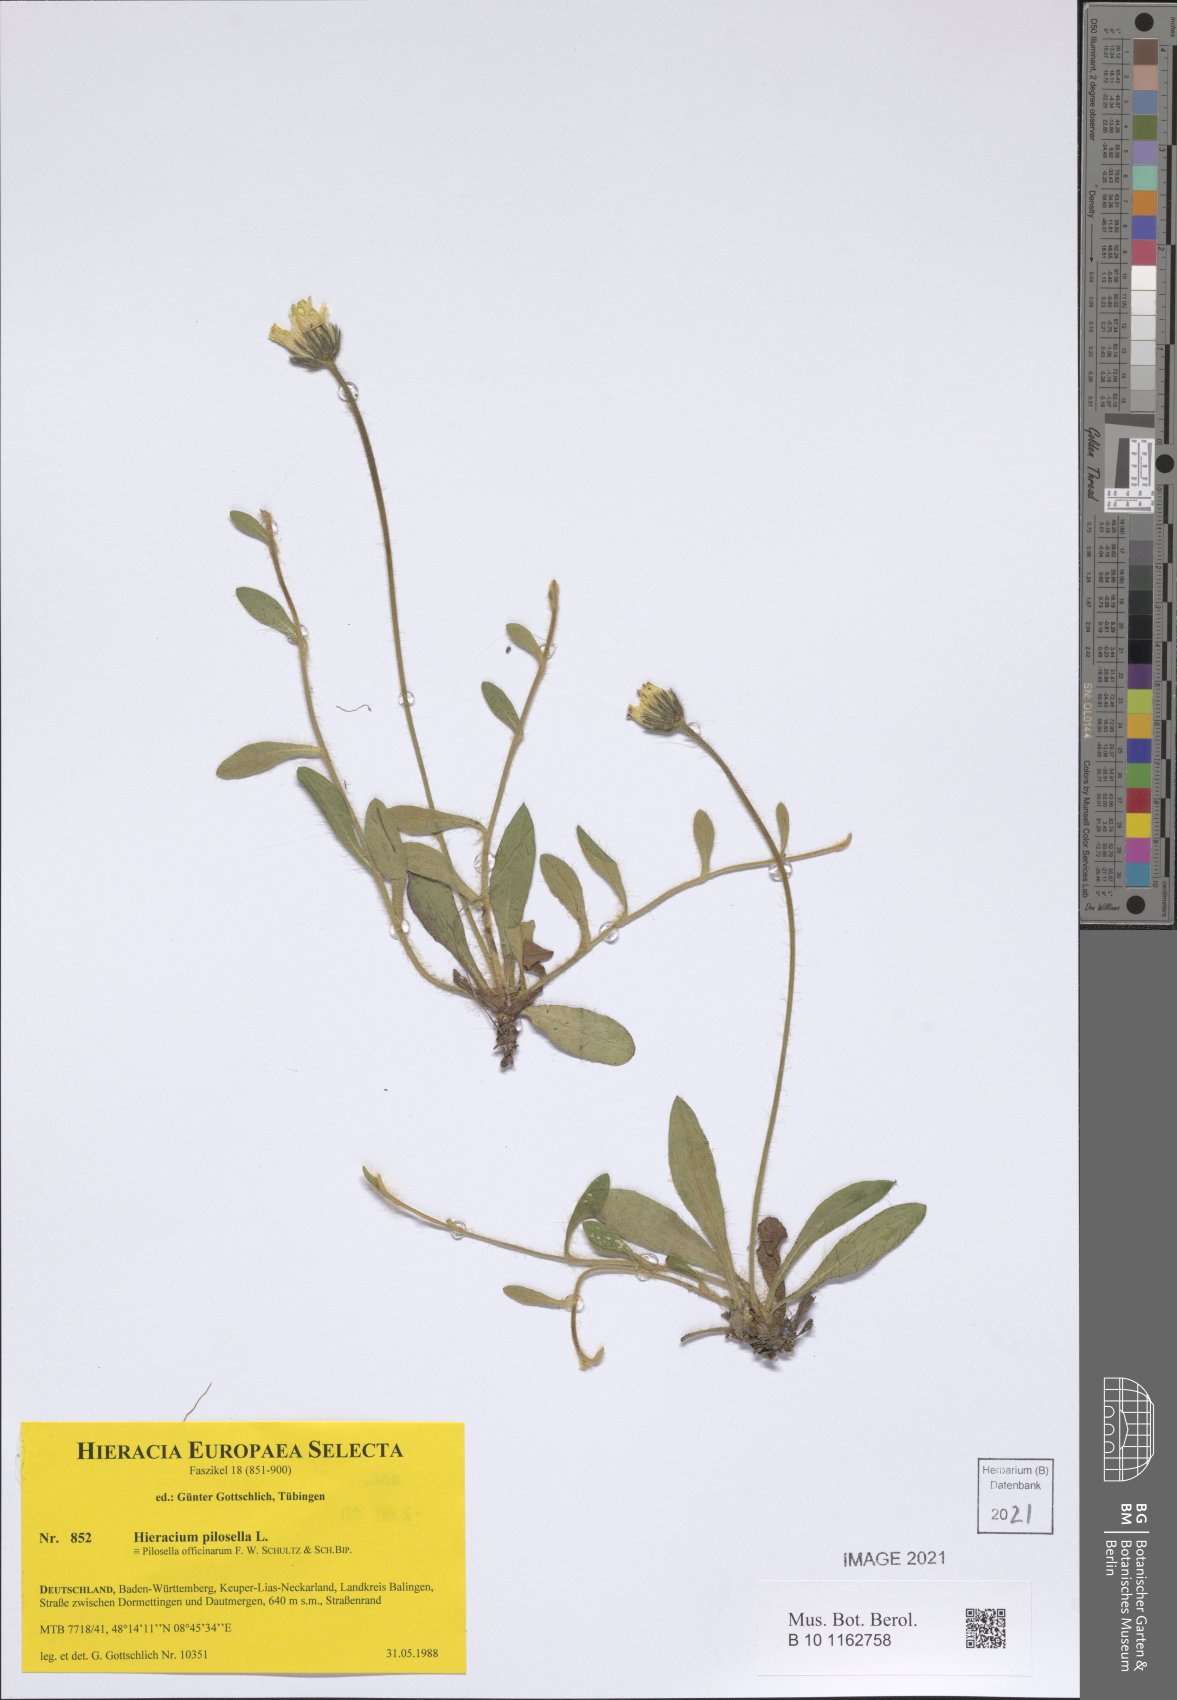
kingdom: Plantae
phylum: Tracheophyta
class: Magnoliopsida
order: Asterales
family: Asteraceae
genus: Pilosella
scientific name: Pilosella officinarum
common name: Mouse-ear hawkweed
